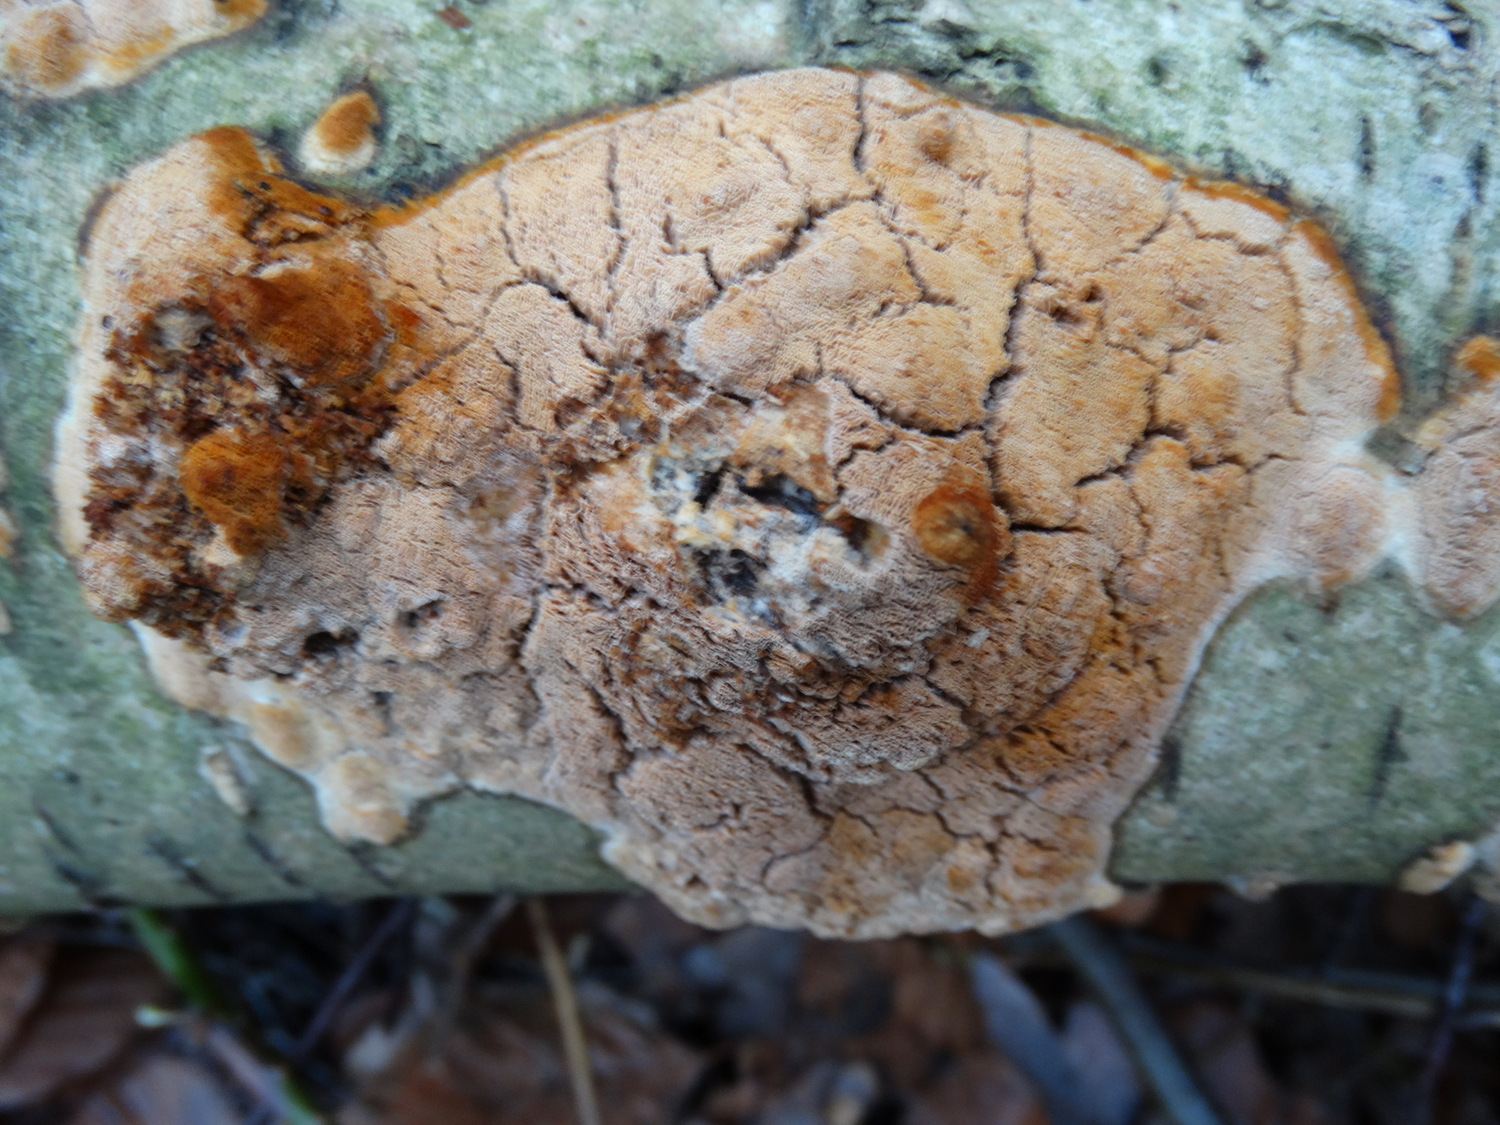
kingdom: Fungi
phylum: Basidiomycota
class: Agaricomycetes
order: Hymenochaetales
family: Schizoporaceae
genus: Xylodon
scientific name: Xylodon flaviporus
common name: gulporet tandsvamp
